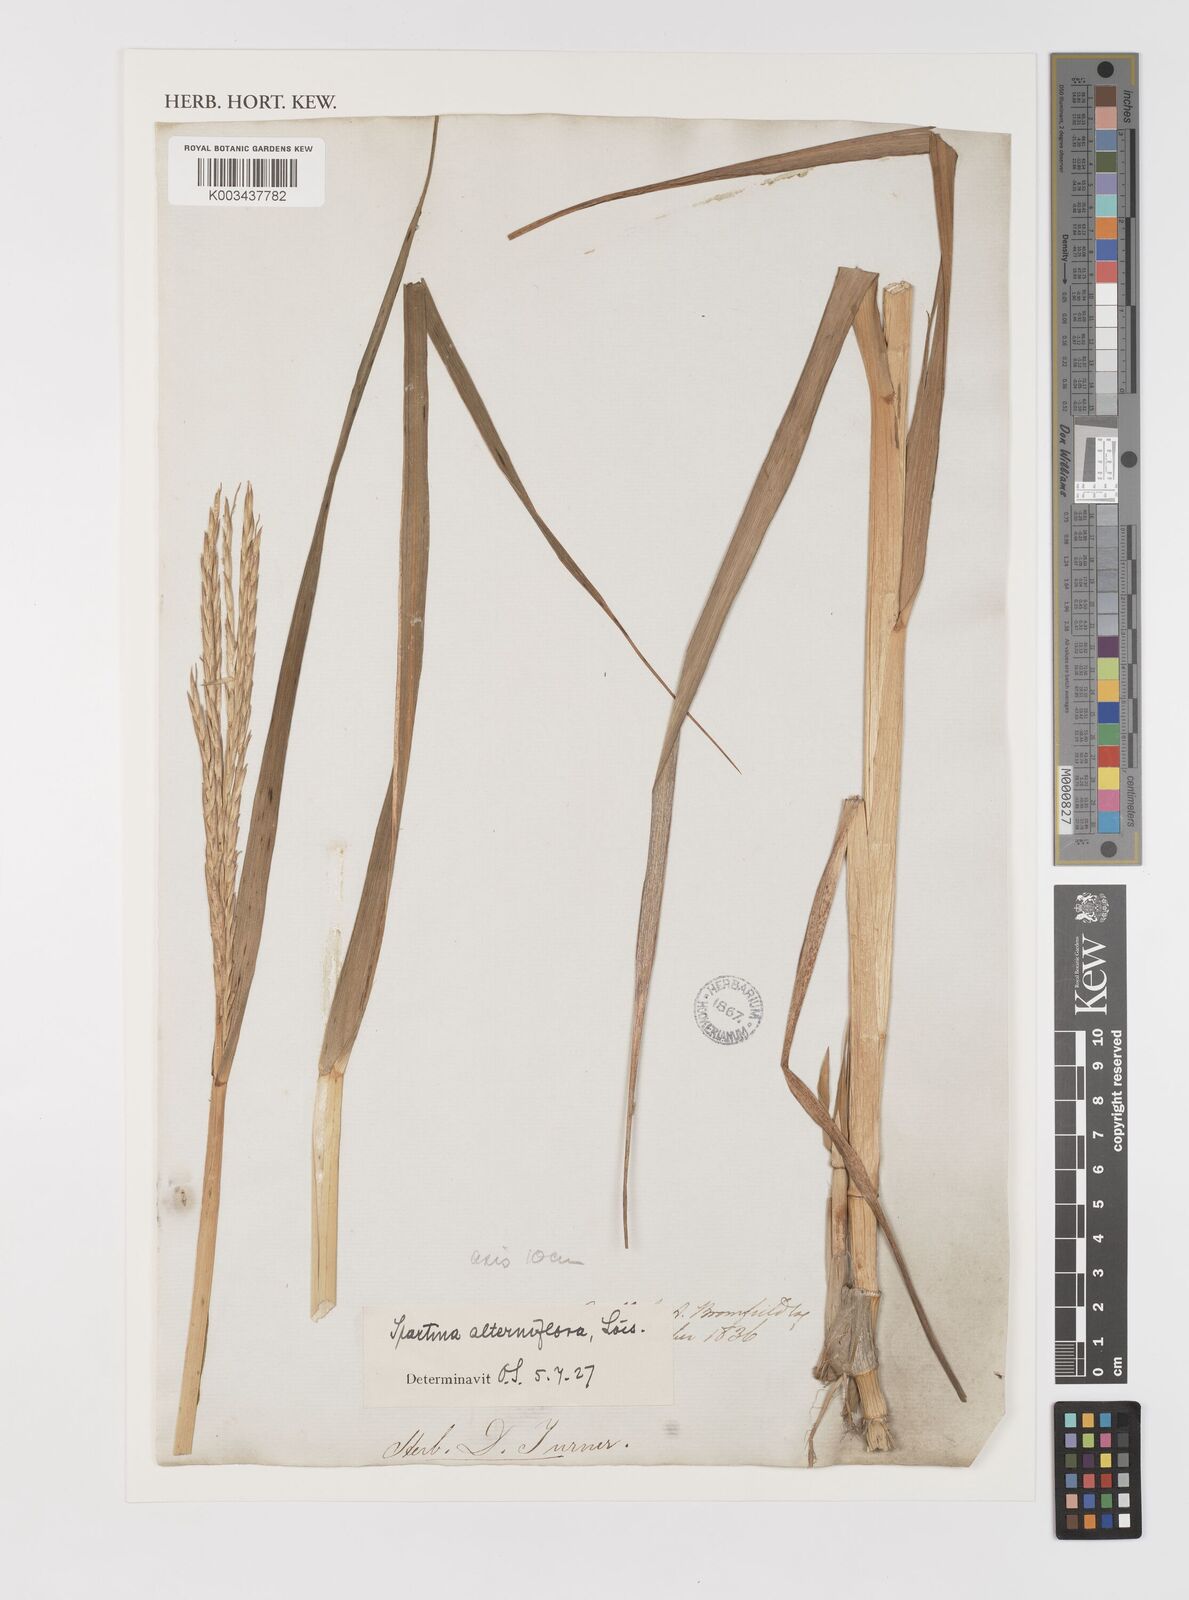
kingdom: Plantae
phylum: Tracheophyta
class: Liliopsida
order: Poales
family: Poaceae
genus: Sporobolus
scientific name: Sporobolus alterniflorus
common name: Atlantic cordgrass
